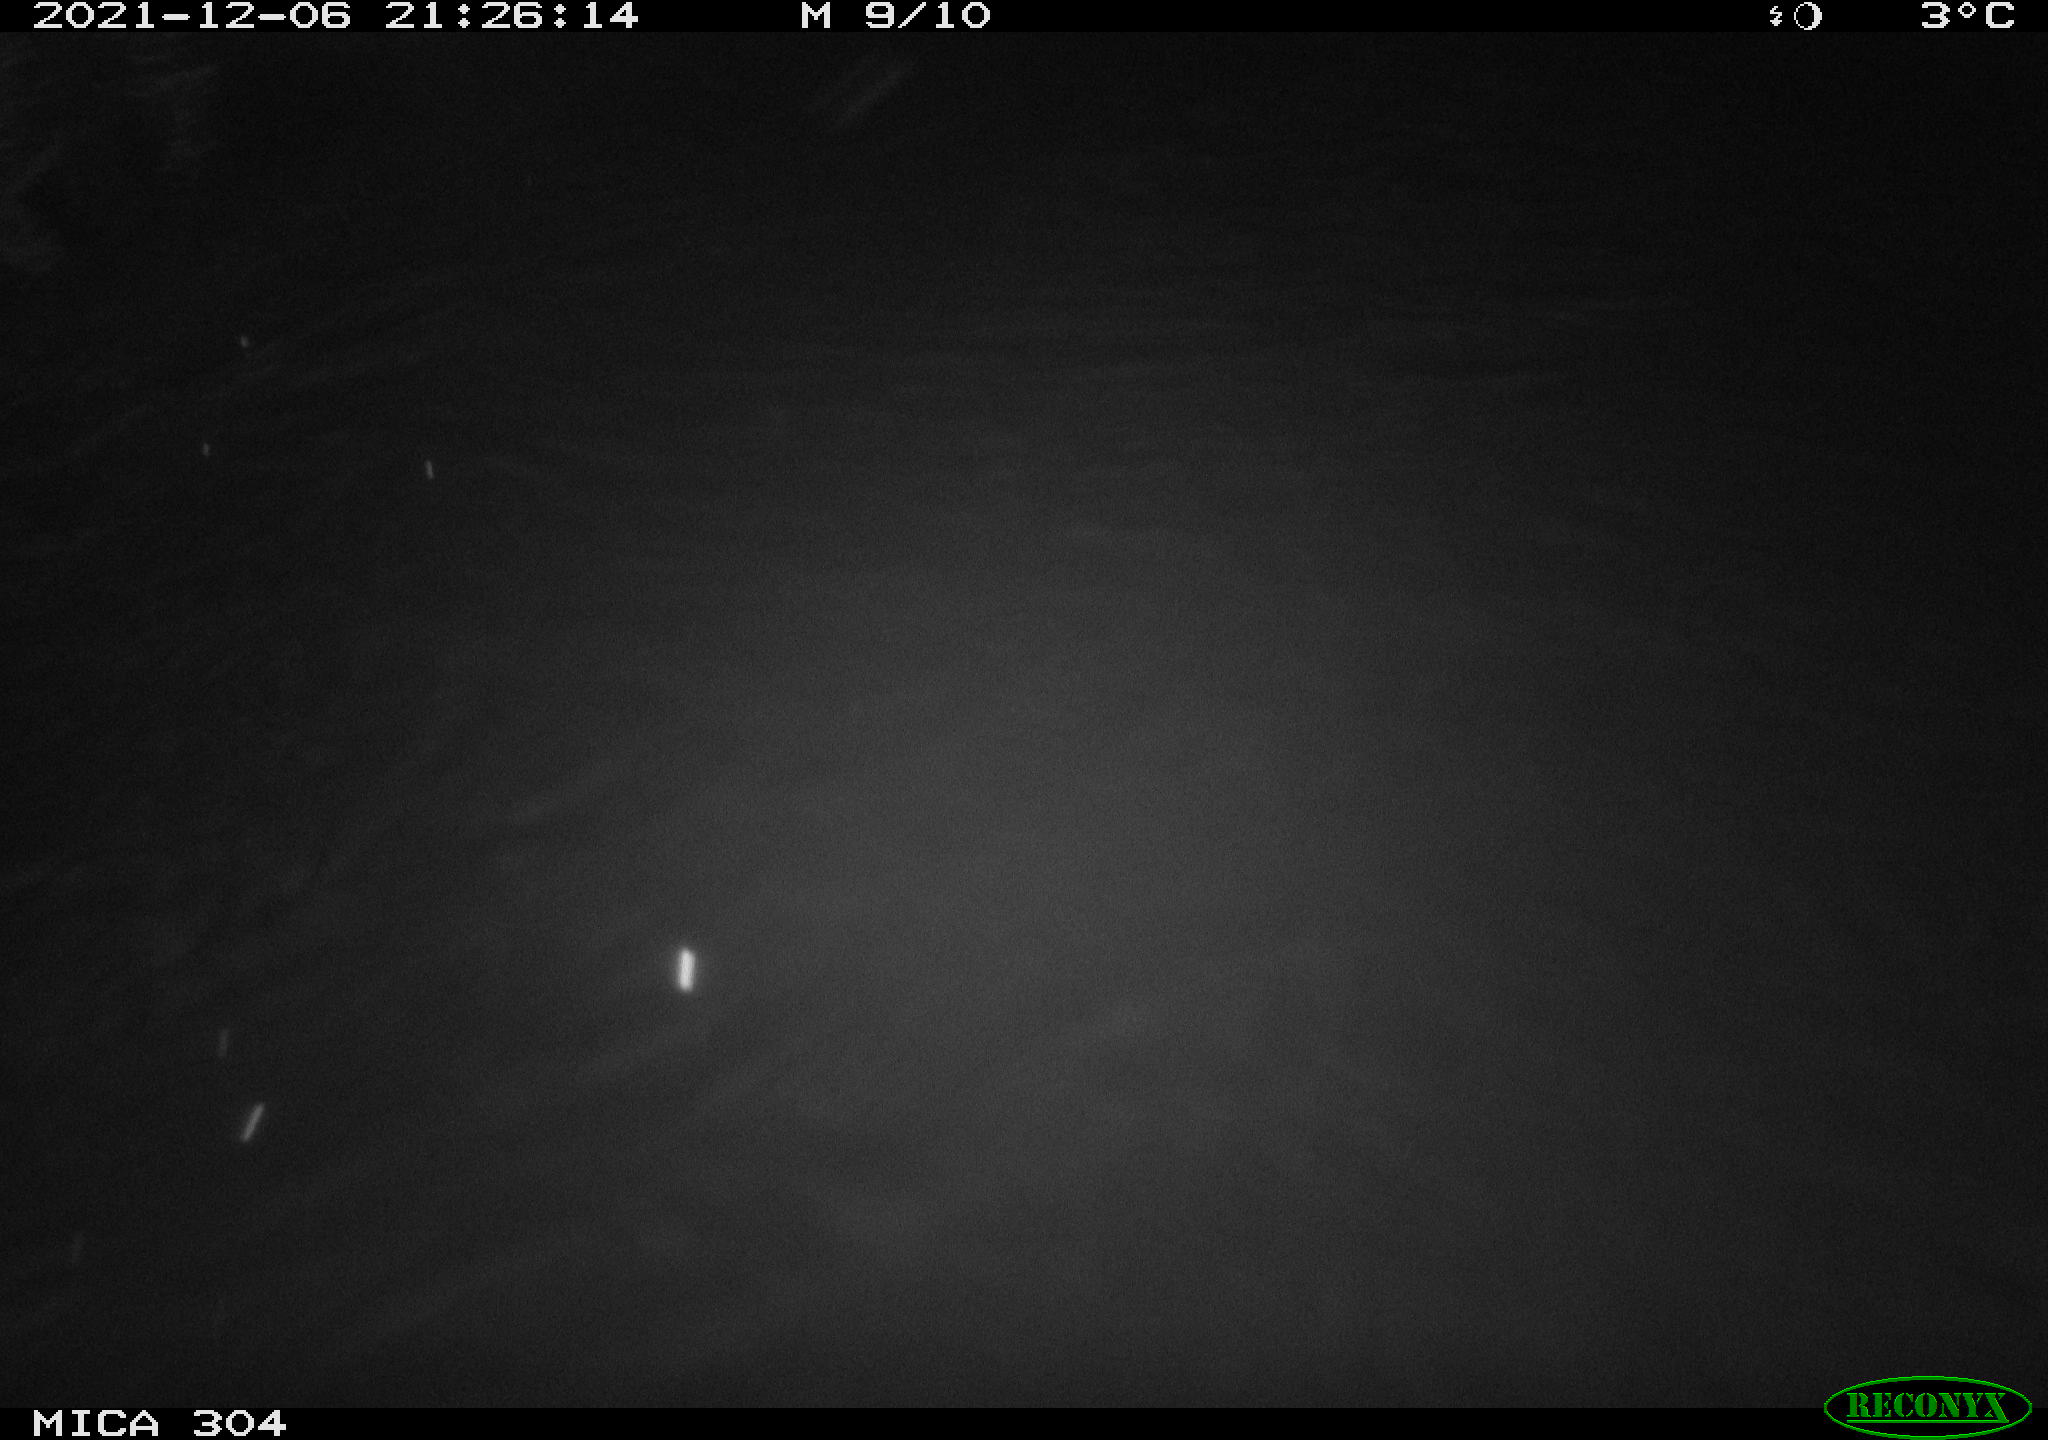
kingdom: Animalia
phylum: Chordata
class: Mammalia
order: Rodentia
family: Muridae
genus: Rattus
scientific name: Rattus norvegicus
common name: Brown rat
